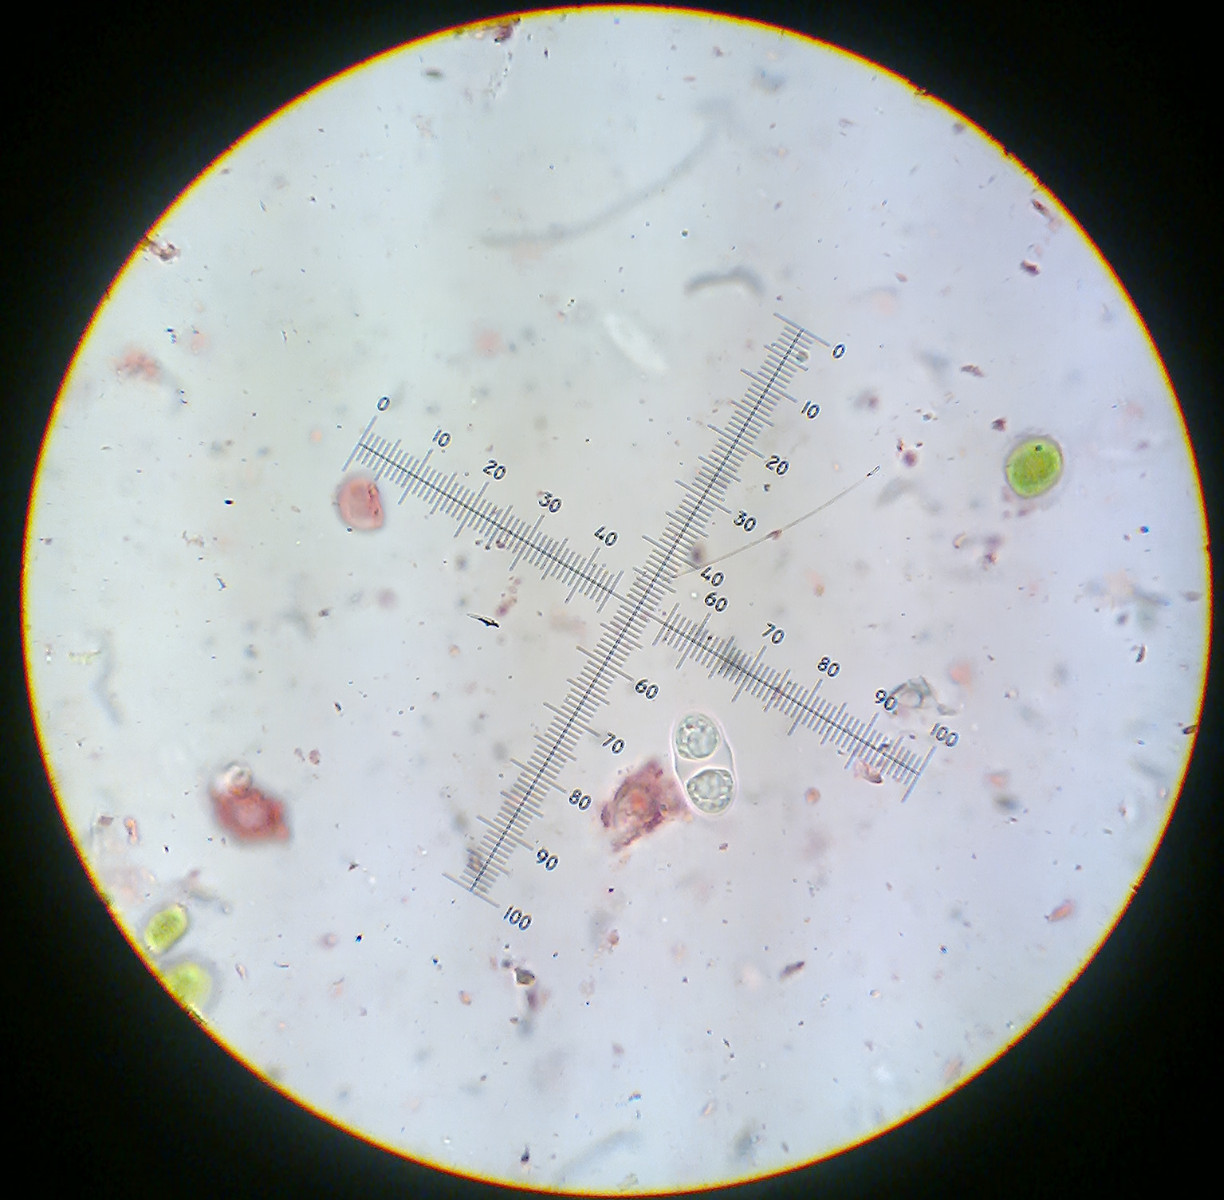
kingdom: Fungi
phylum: Ascomycota
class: Lecanoromycetes
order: Teloschistales
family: Teloschistaceae
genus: Xanthocarpia
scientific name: Xanthocarpia crenulatella
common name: kreneleret orangelav
